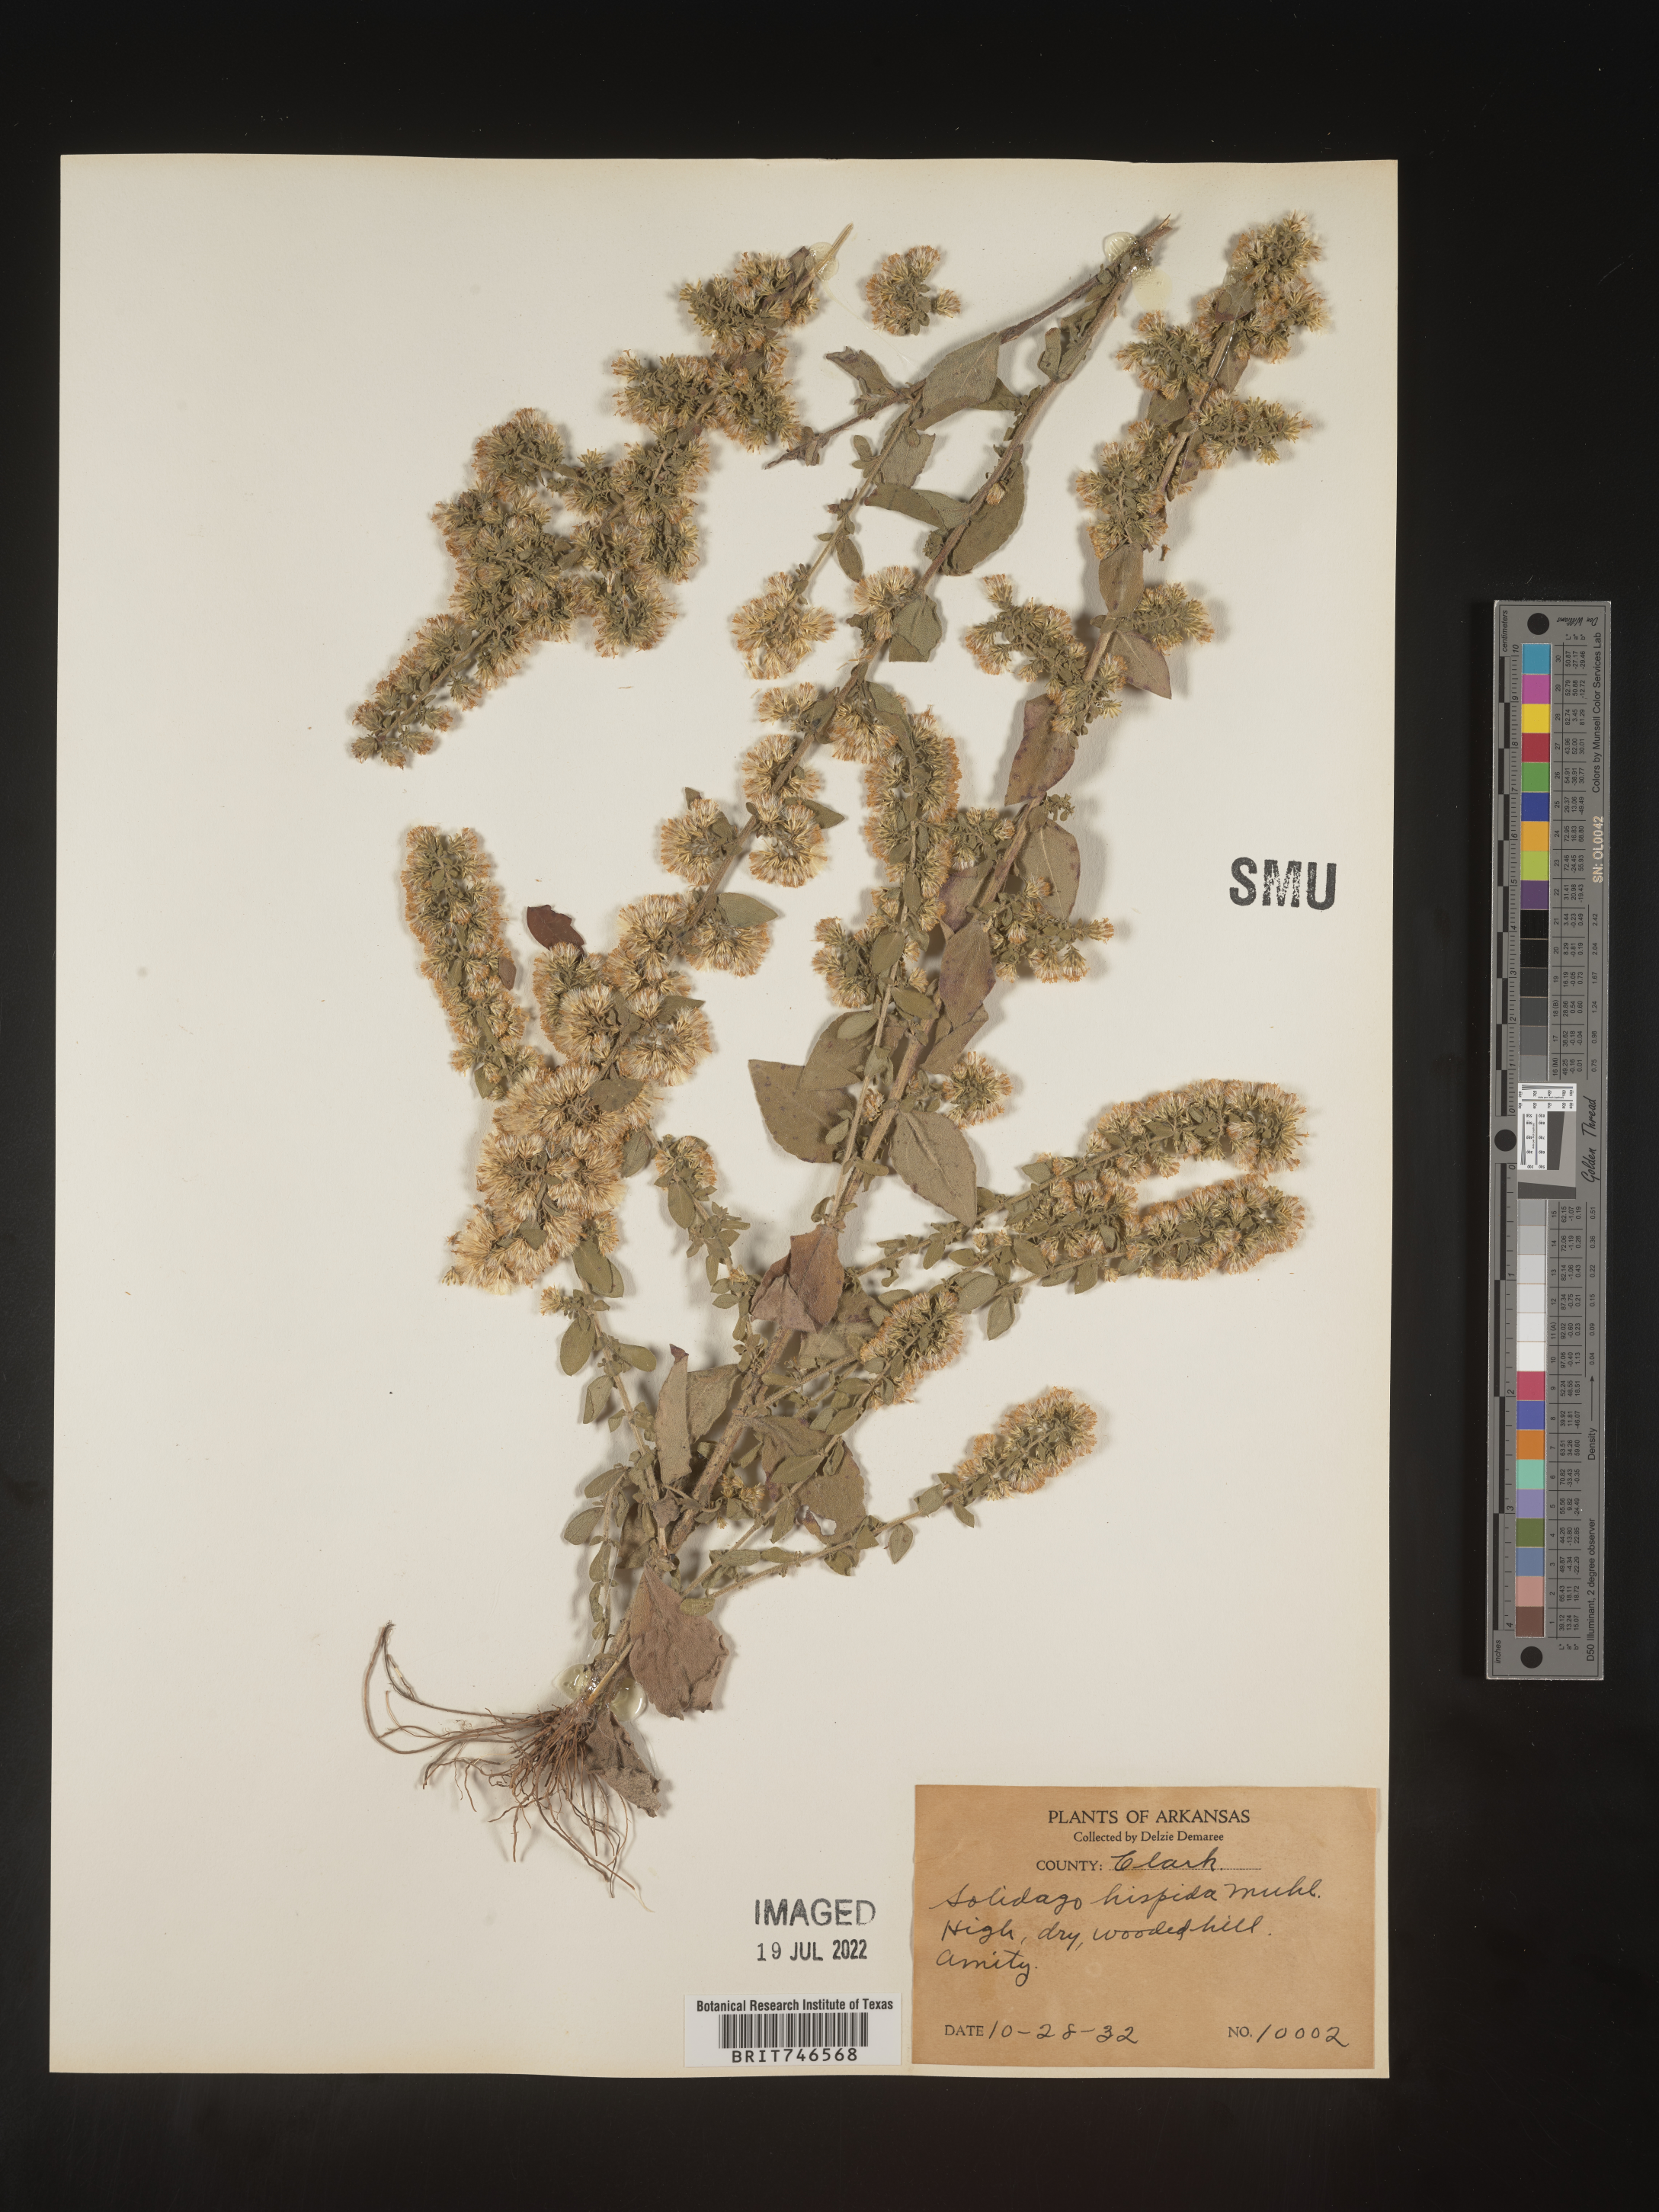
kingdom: Plantae
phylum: Tracheophyta
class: Magnoliopsida
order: Asterales
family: Asteraceae
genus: Solidago
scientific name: Solidago hispida
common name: Hairy goldenrod
